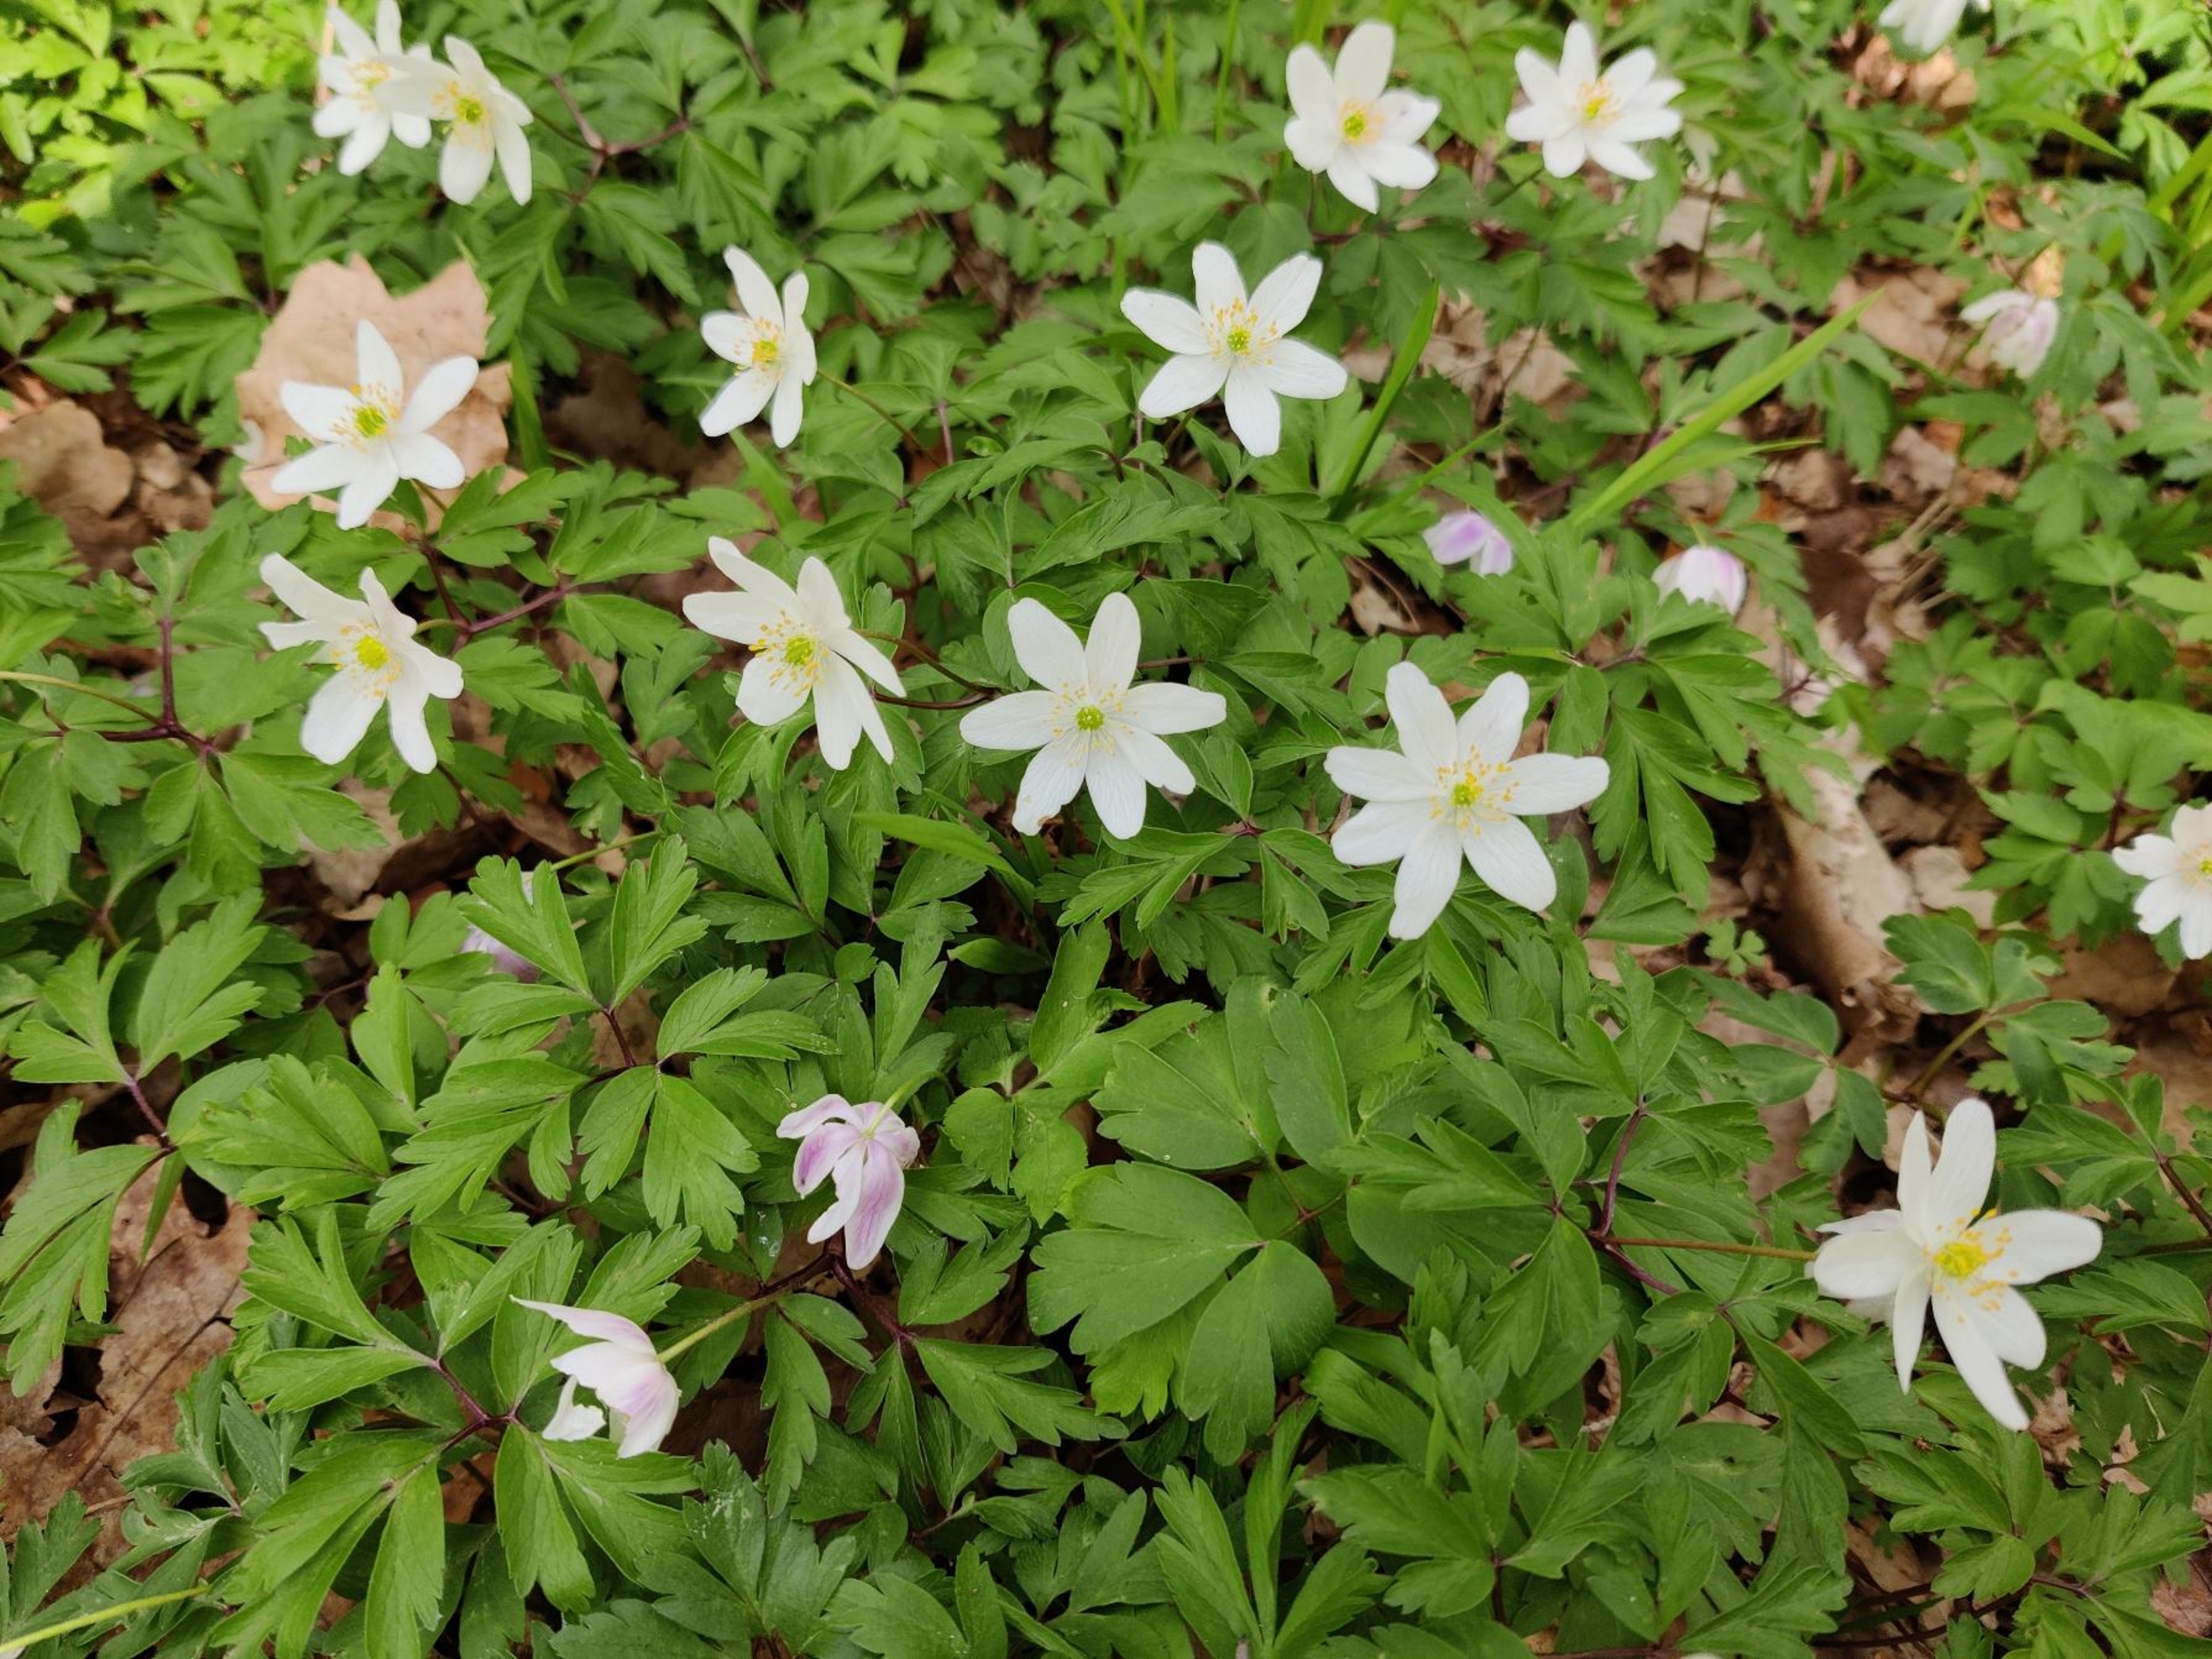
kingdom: Plantae
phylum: Tracheophyta
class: Magnoliopsida
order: Ranunculales
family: Ranunculaceae
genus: Anemone
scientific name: Anemone nemorosa
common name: Hvid anemone
